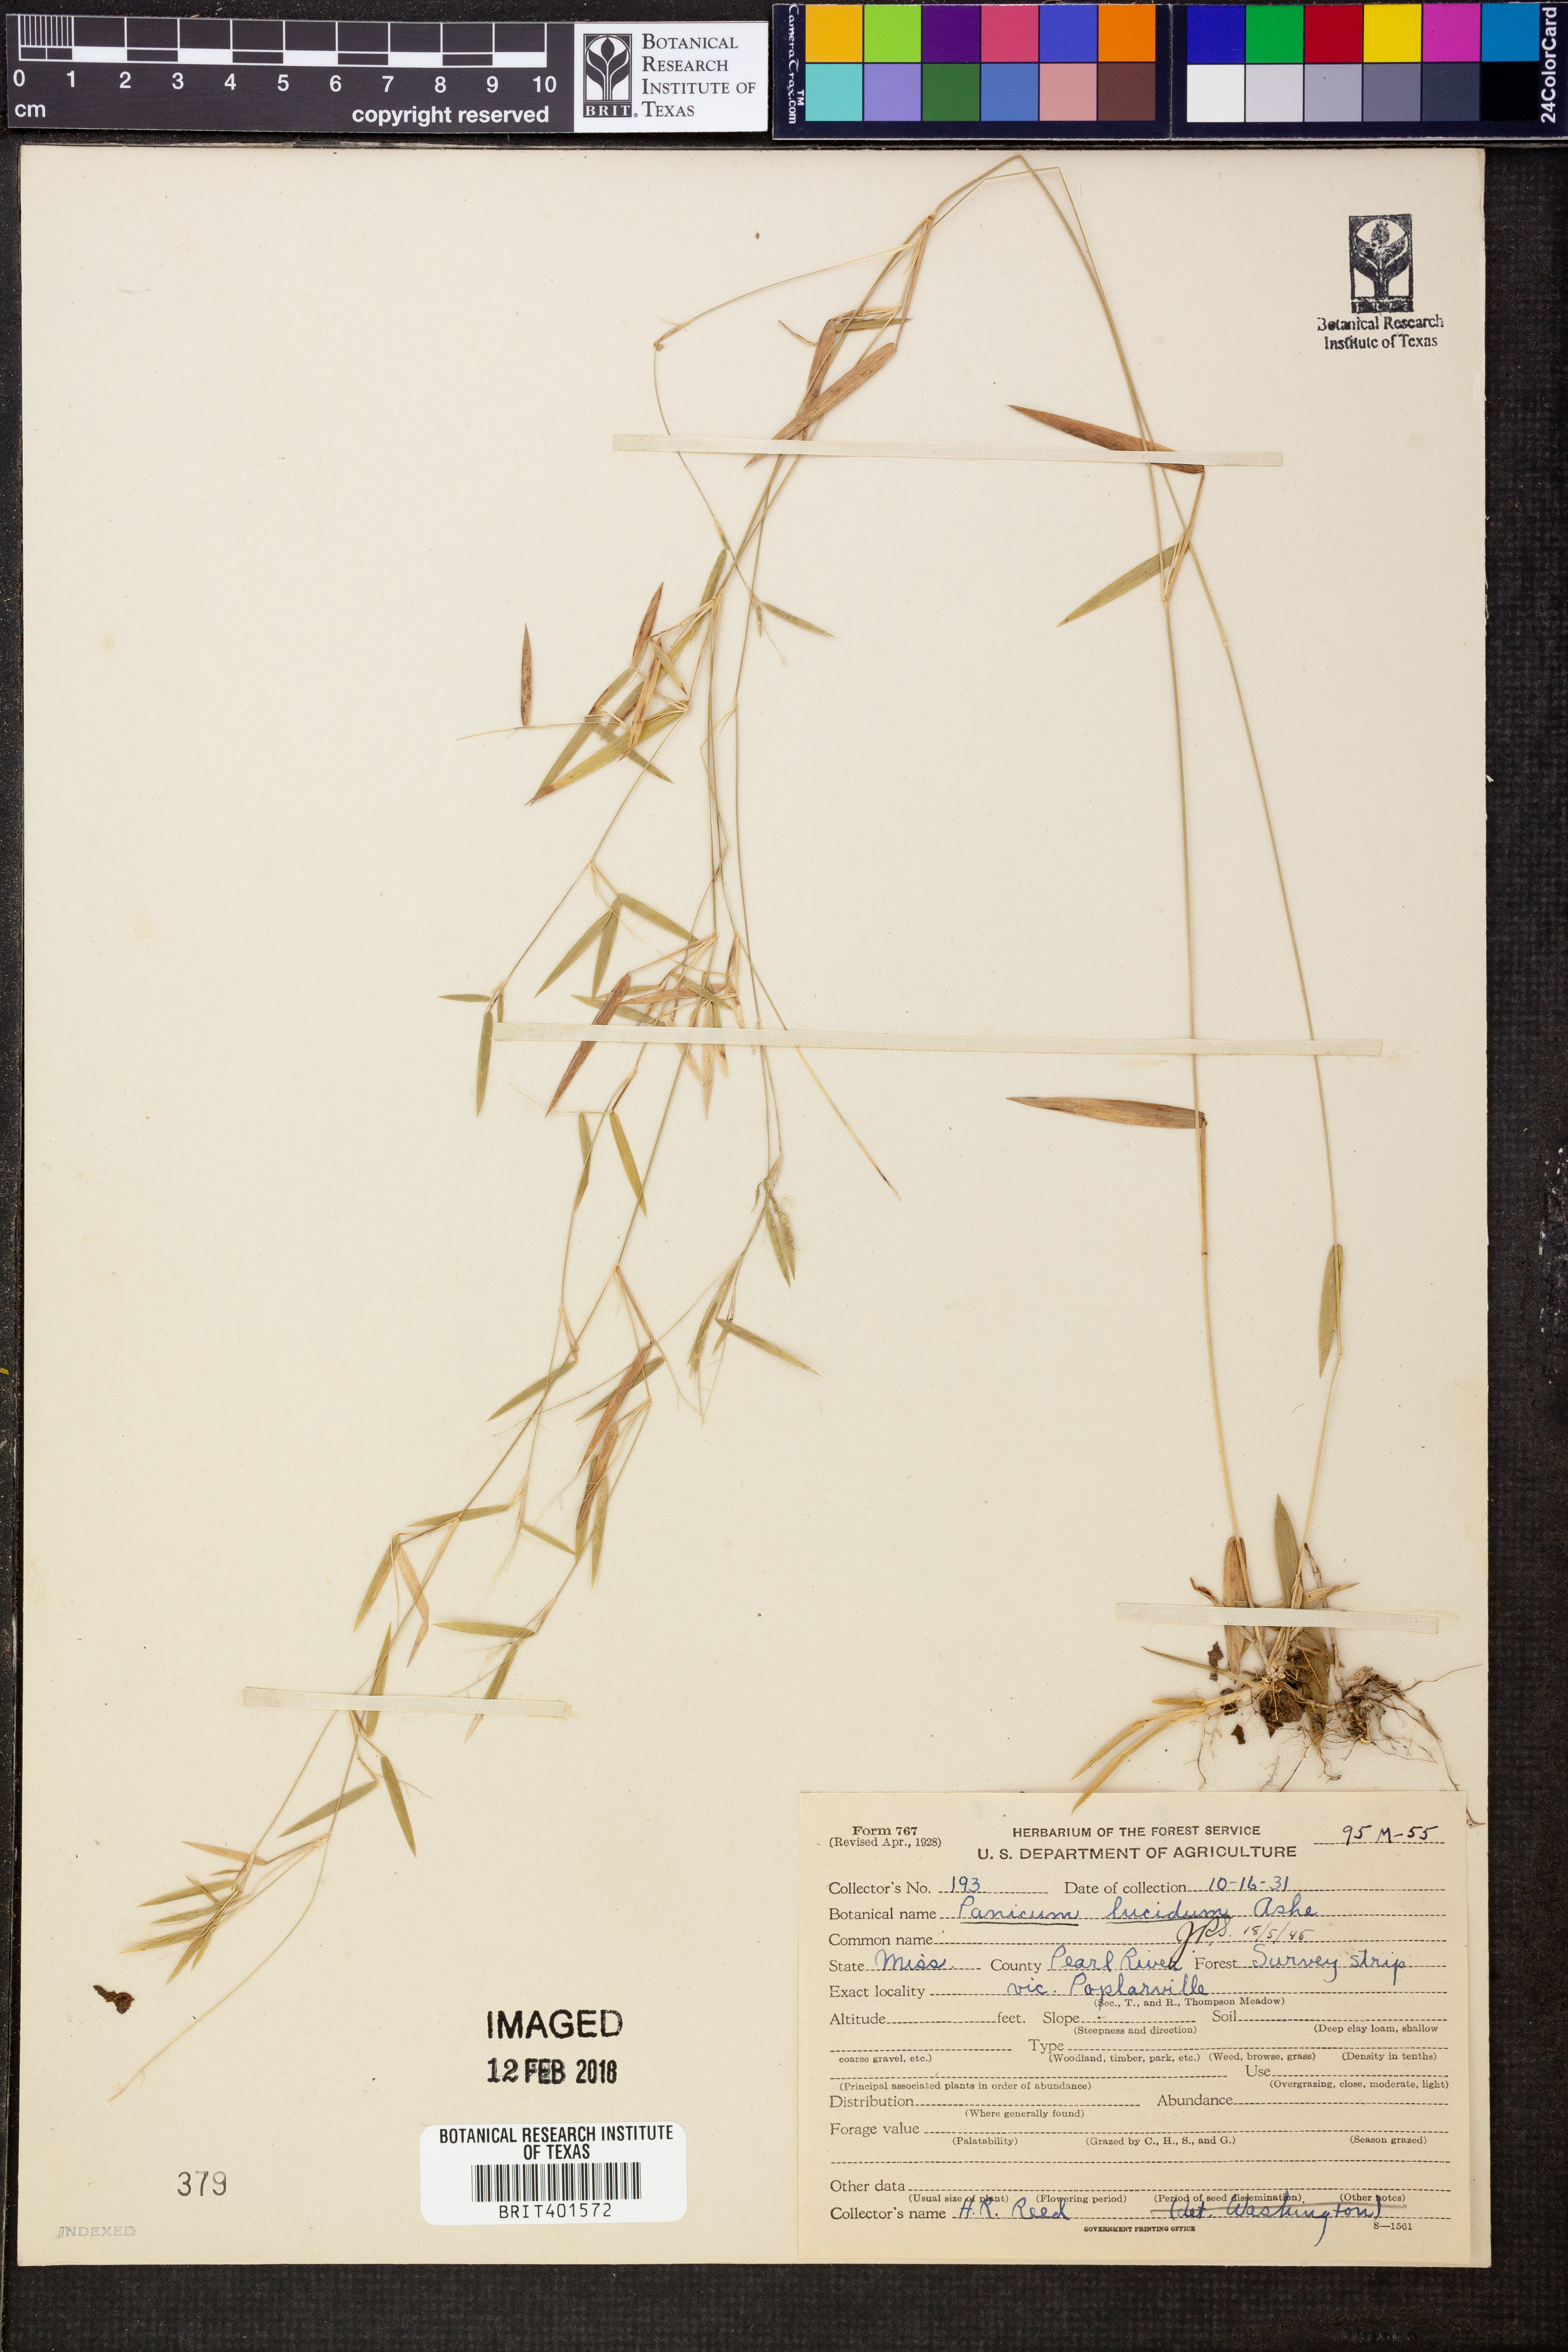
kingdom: Plantae
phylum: Tracheophyta
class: Liliopsida
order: Poales
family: Poaceae
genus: Dichanthelium
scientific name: Dichanthelium lucidum
